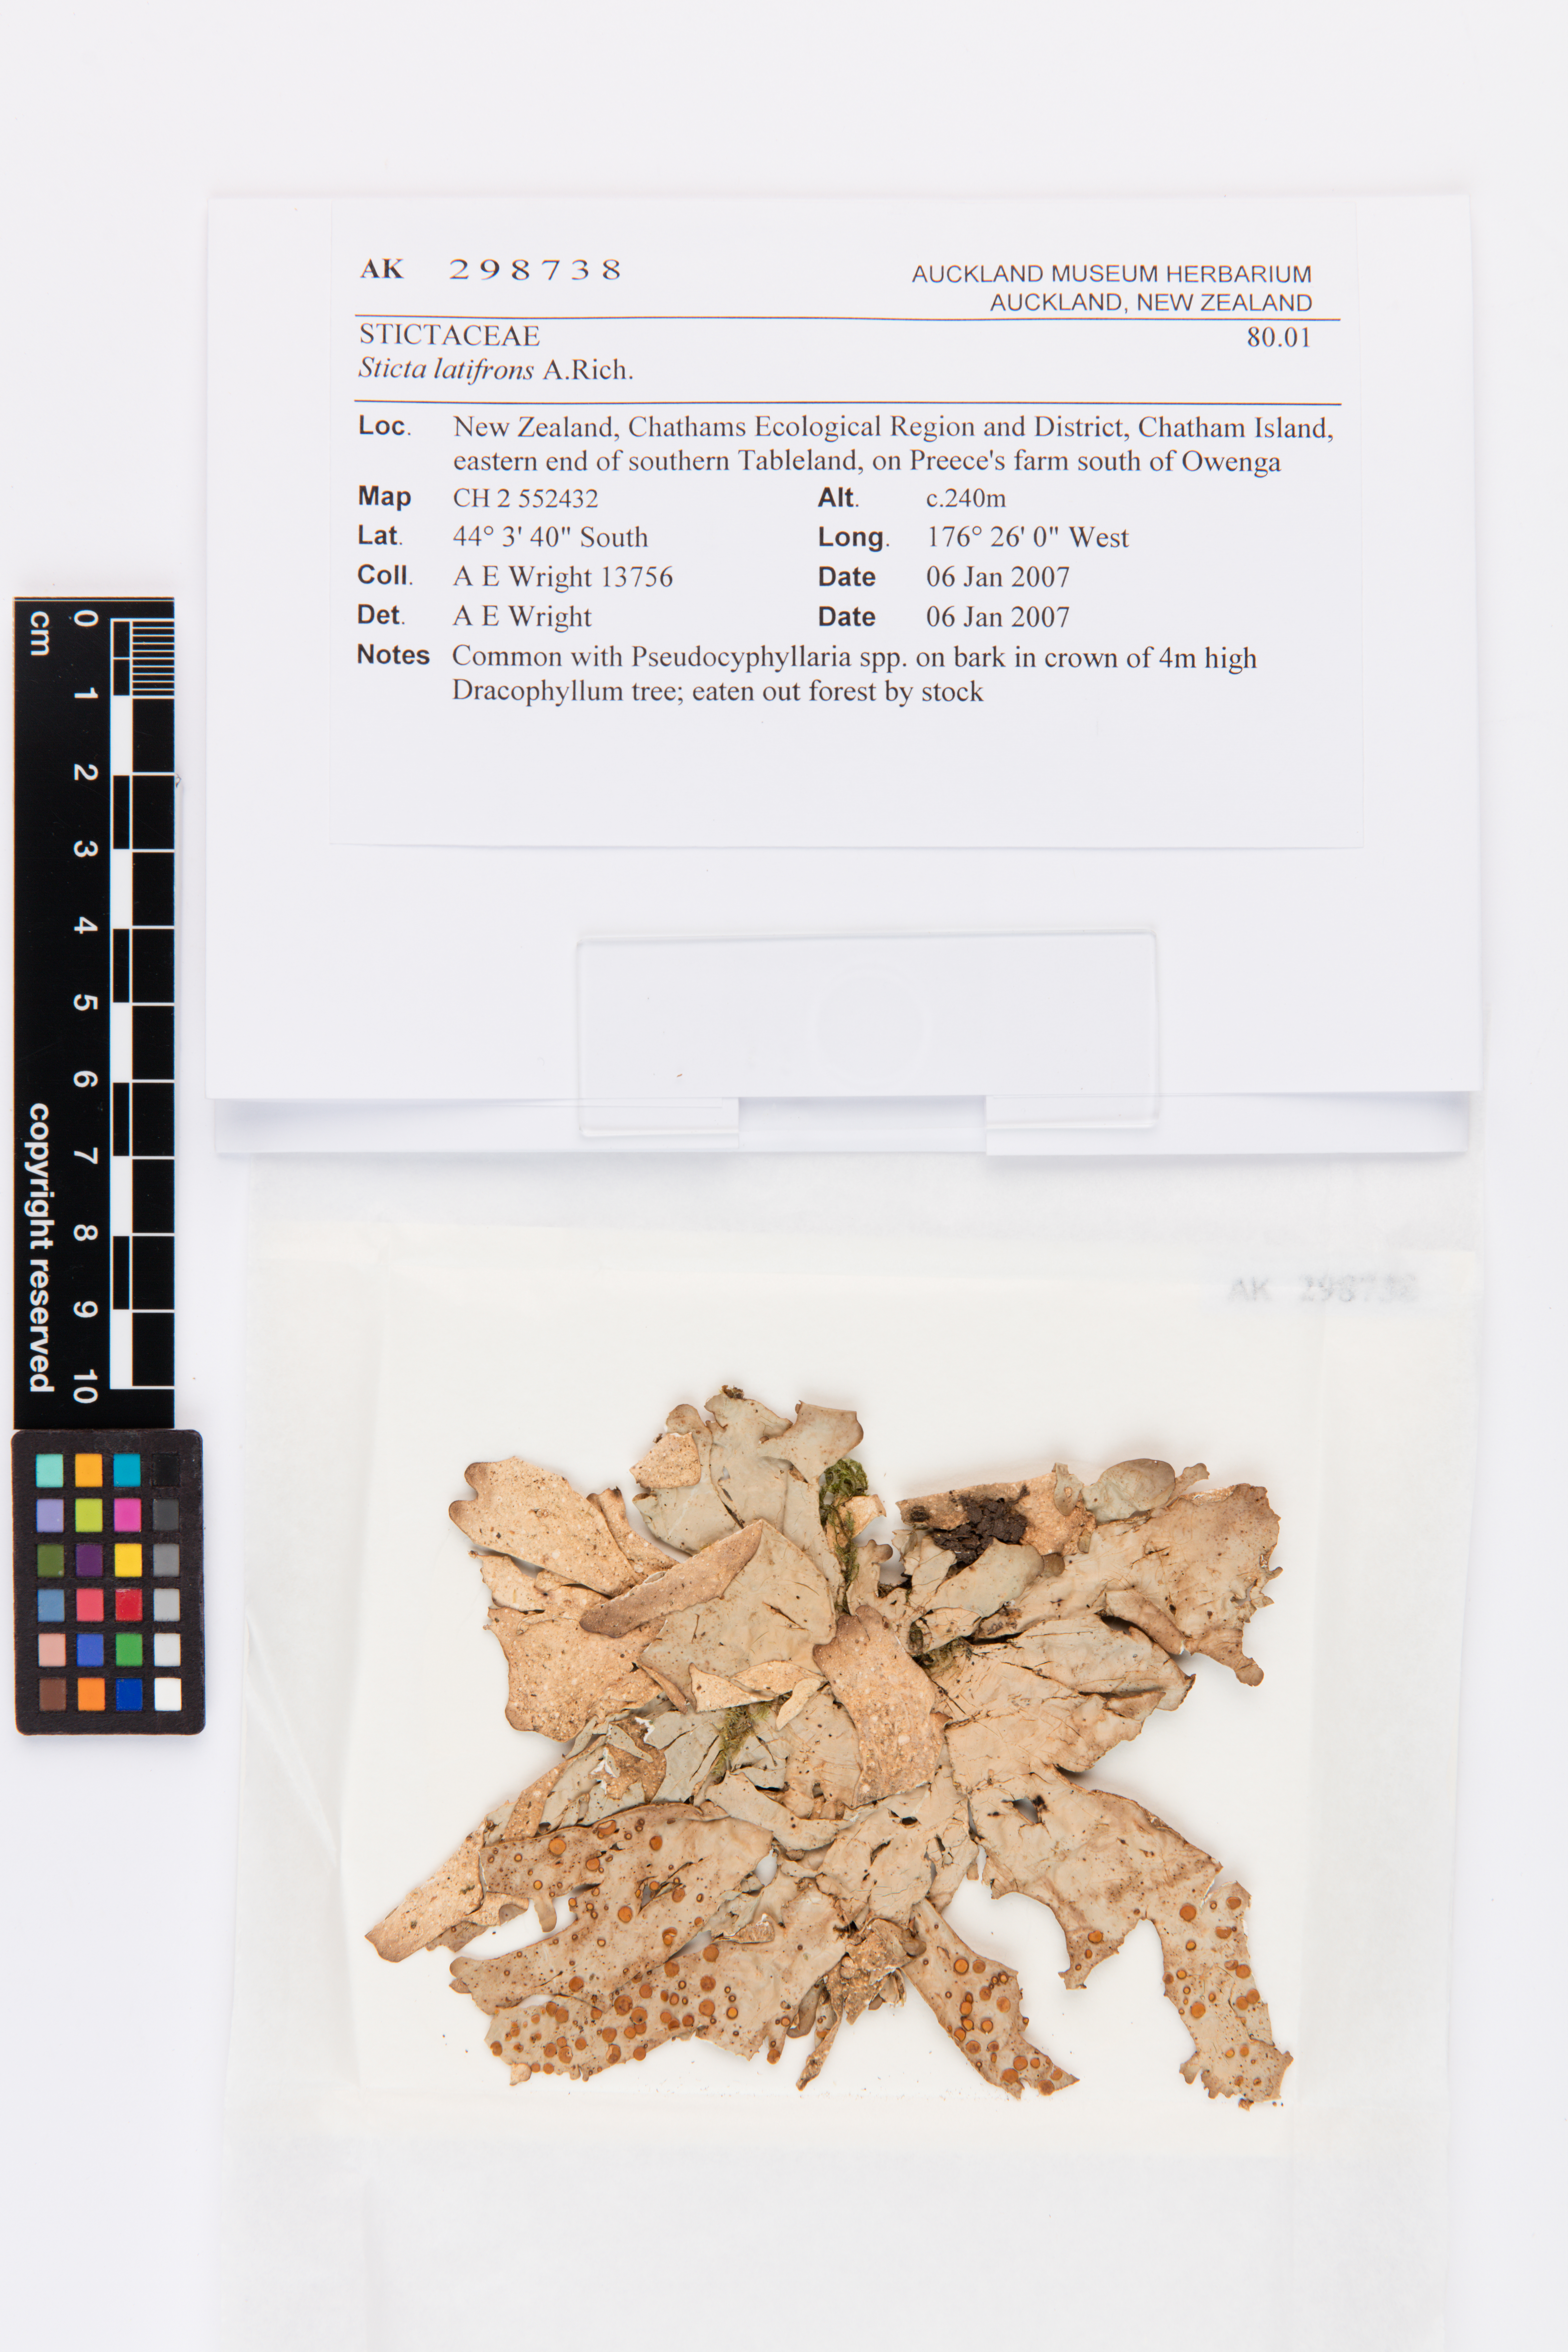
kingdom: Fungi
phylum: Ascomycota
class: Lecanoromycetes
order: Peltigerales
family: Lobariaceae
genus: Sticta
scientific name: Sticta latifrons
